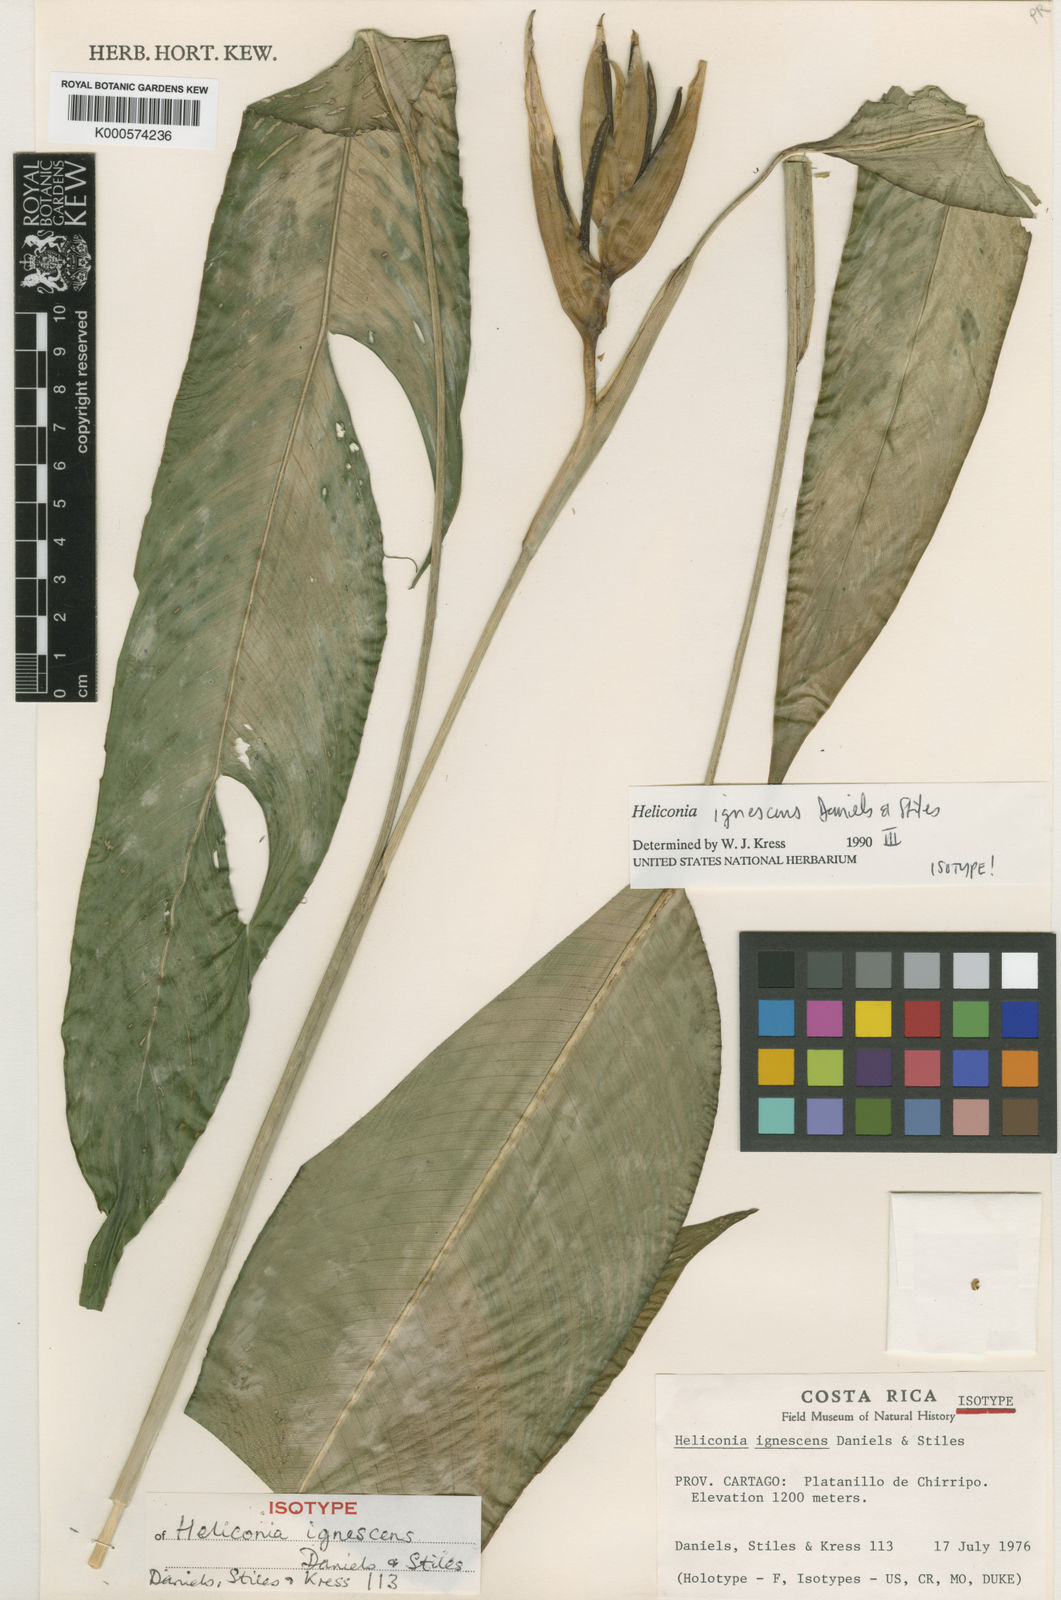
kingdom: Plantae
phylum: Tracheophyta
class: Liliopsida
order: Zingiberales
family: Heliconiaceae
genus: Heliconia
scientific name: Heliconia ignescens
